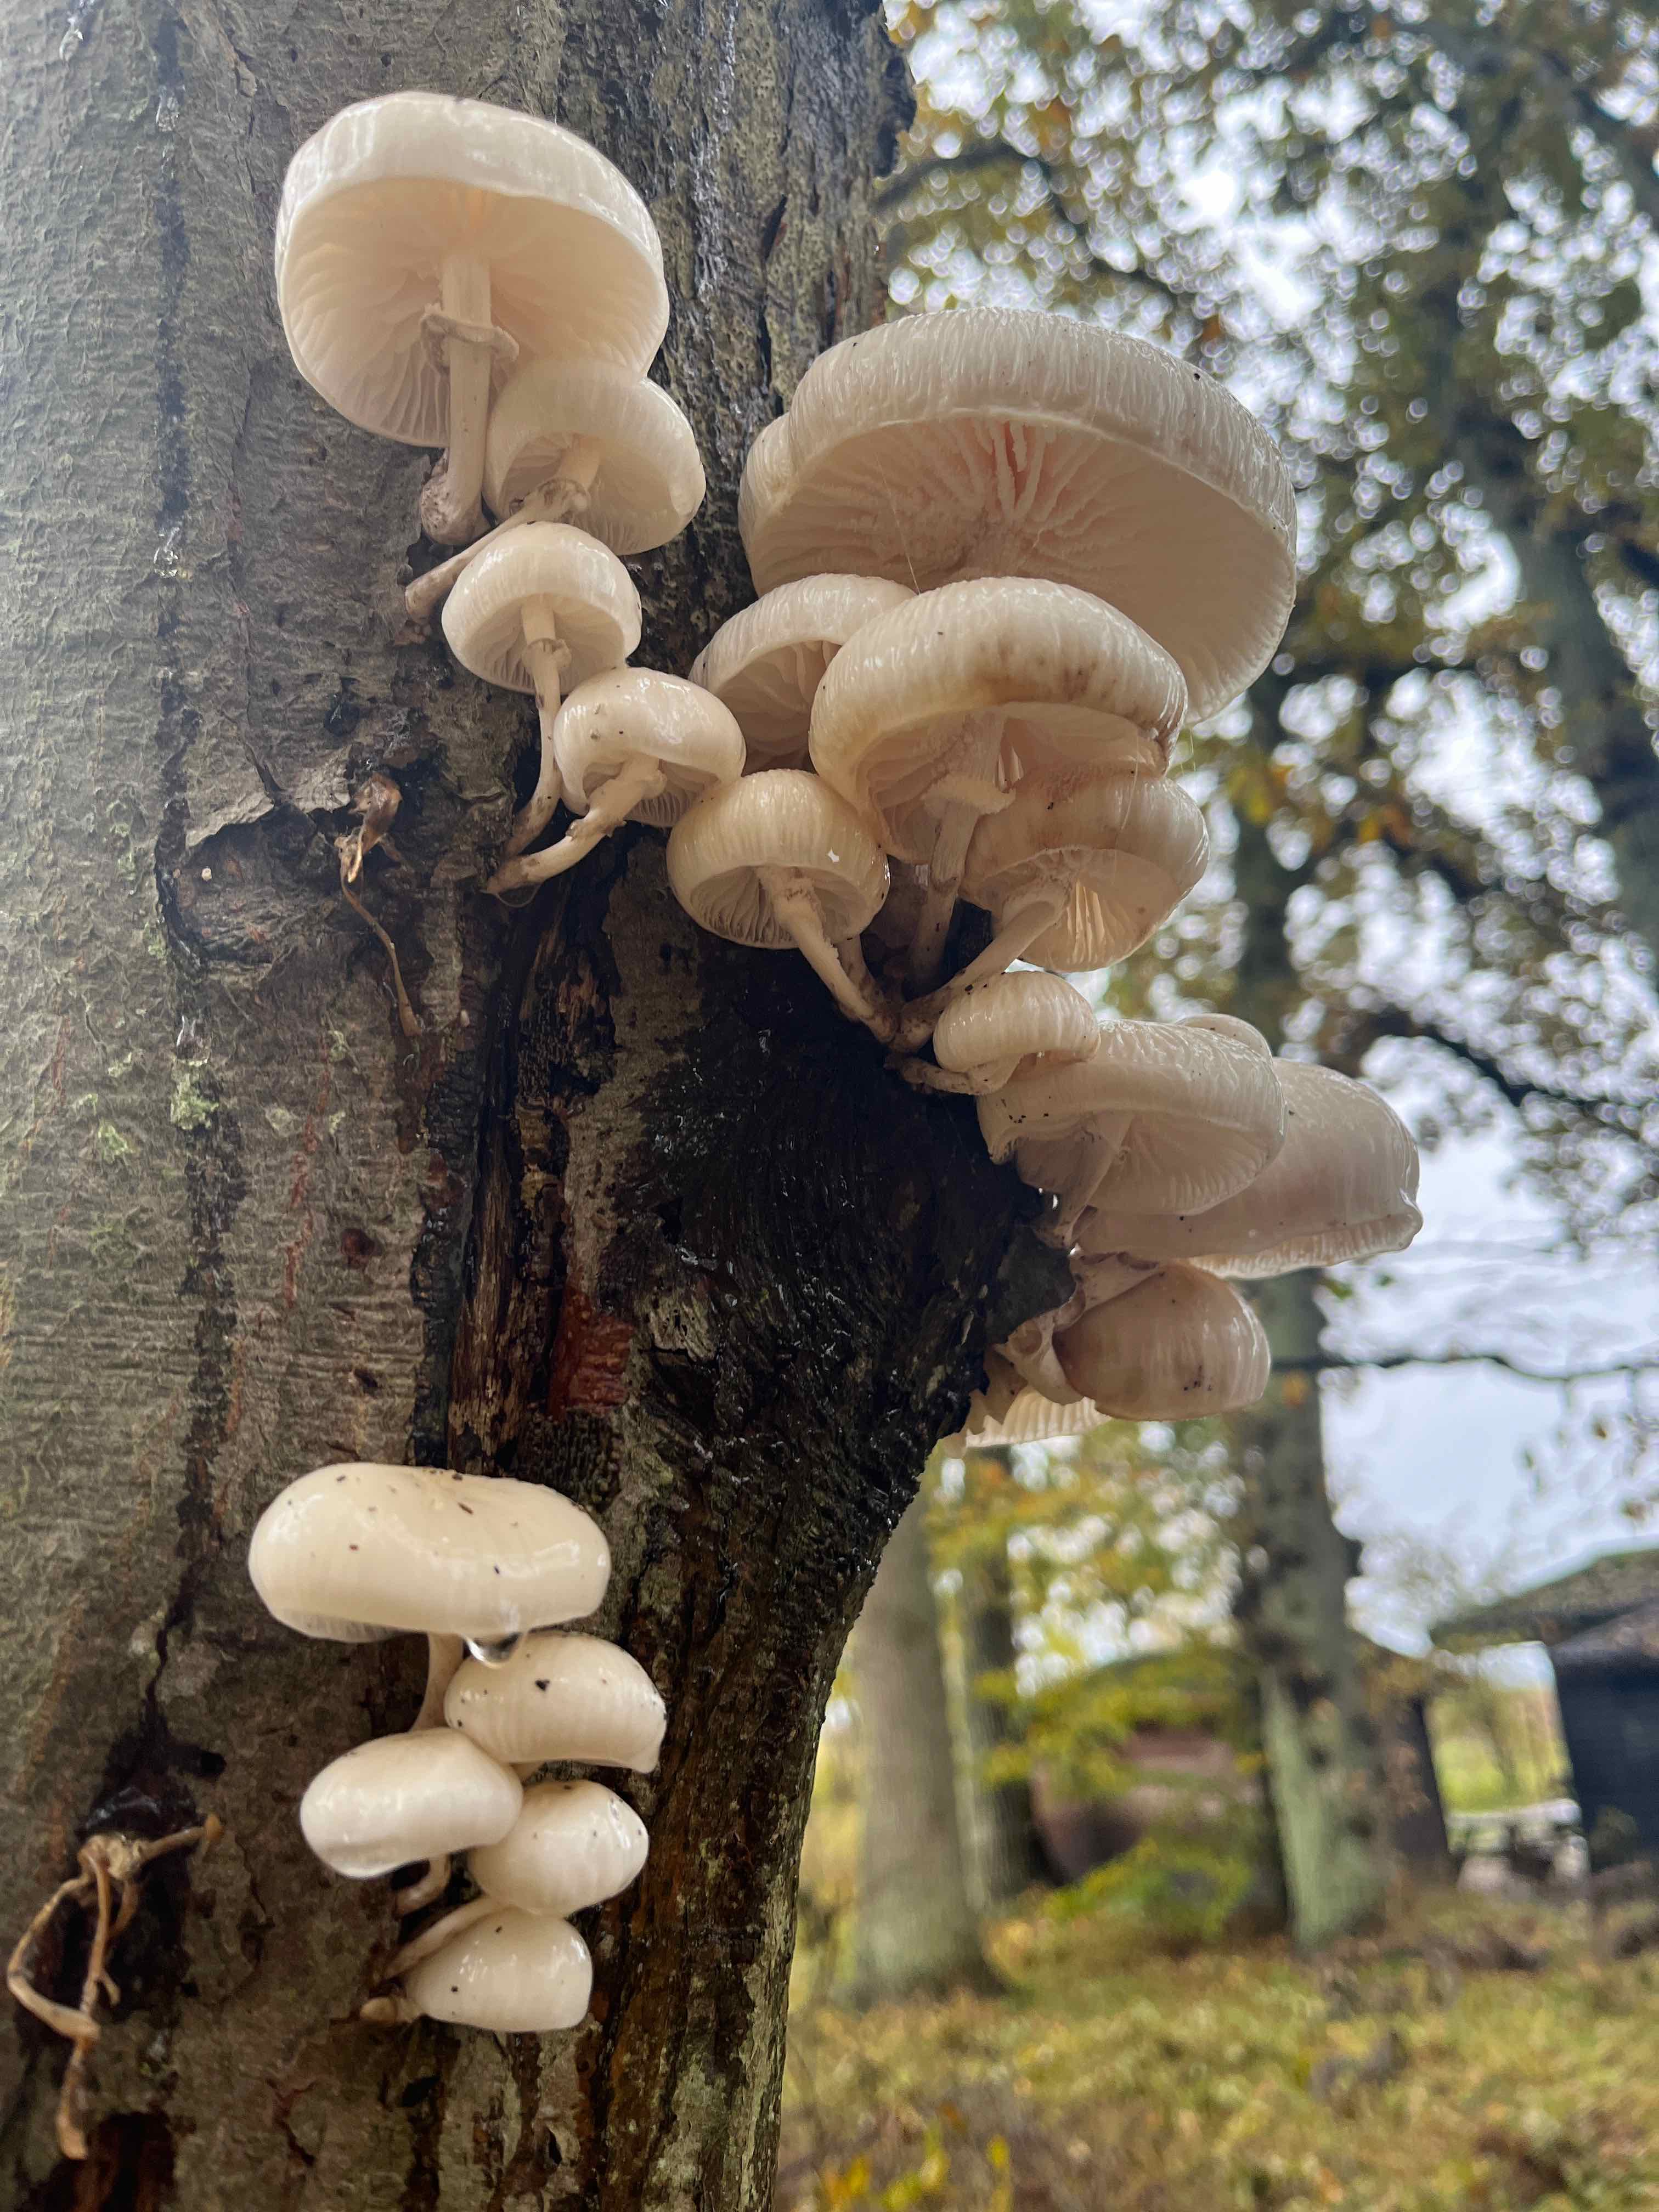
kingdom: Fungi
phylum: Basidiomycota
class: Agaricomycetes
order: Agaricales
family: Physalacriaceae
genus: Mucidula
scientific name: Mucidula mucida
